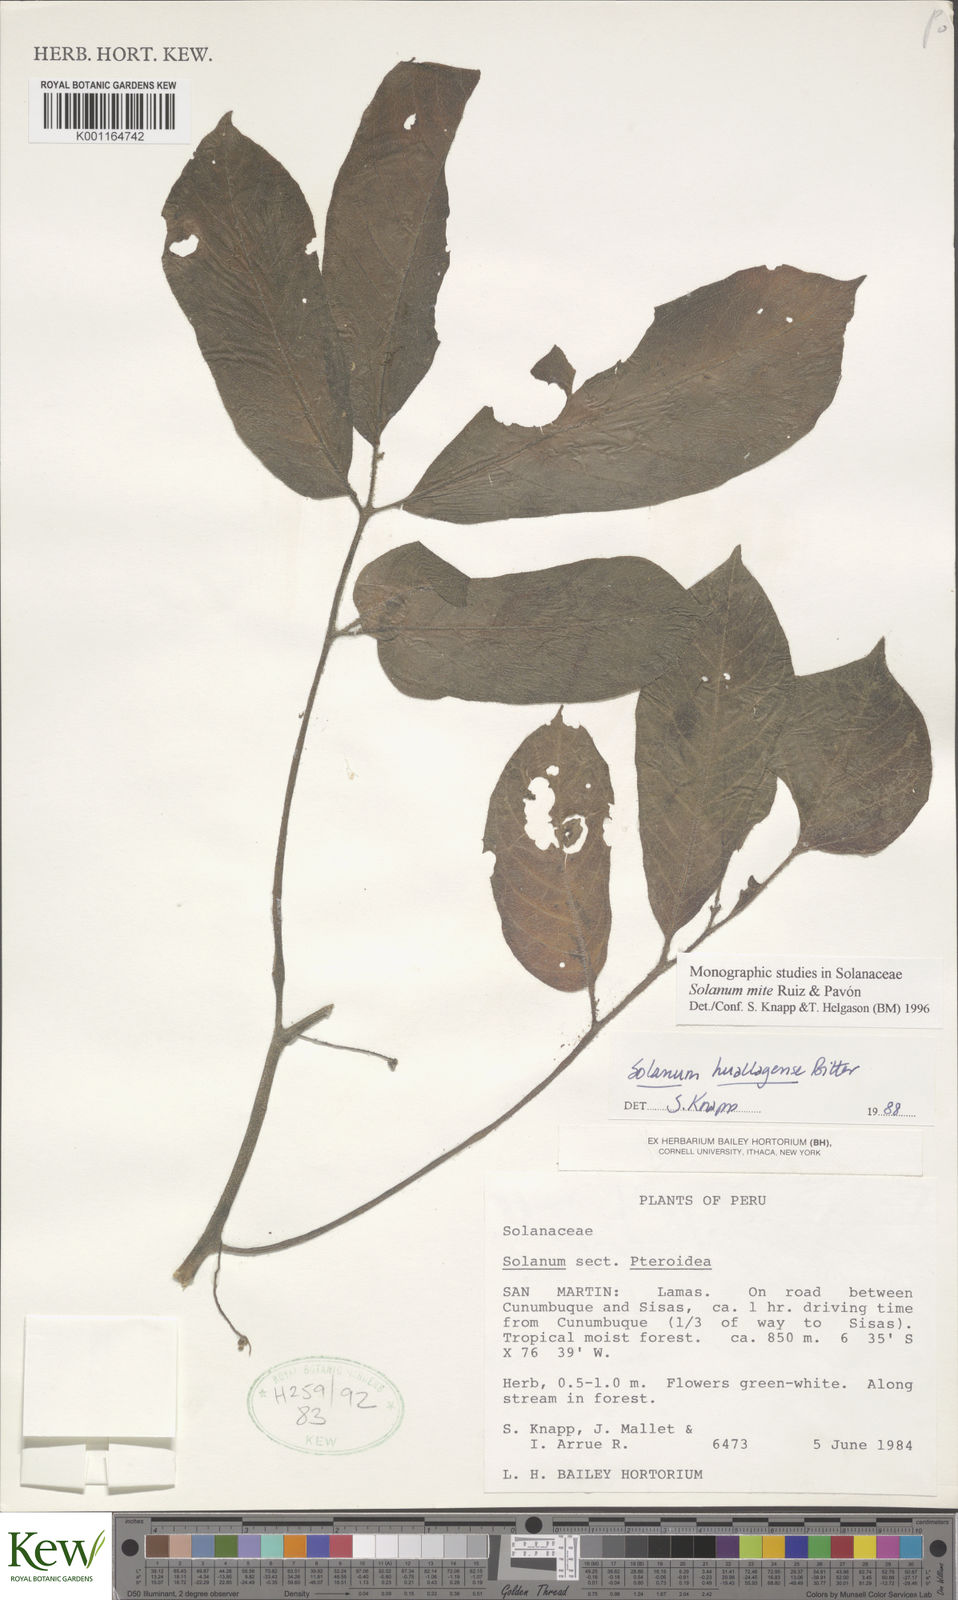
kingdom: Plantae
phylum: Tracheophyta
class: Magnoliopsida
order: Solanales
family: Solanaceae
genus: Solanum
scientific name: Solanum mite
